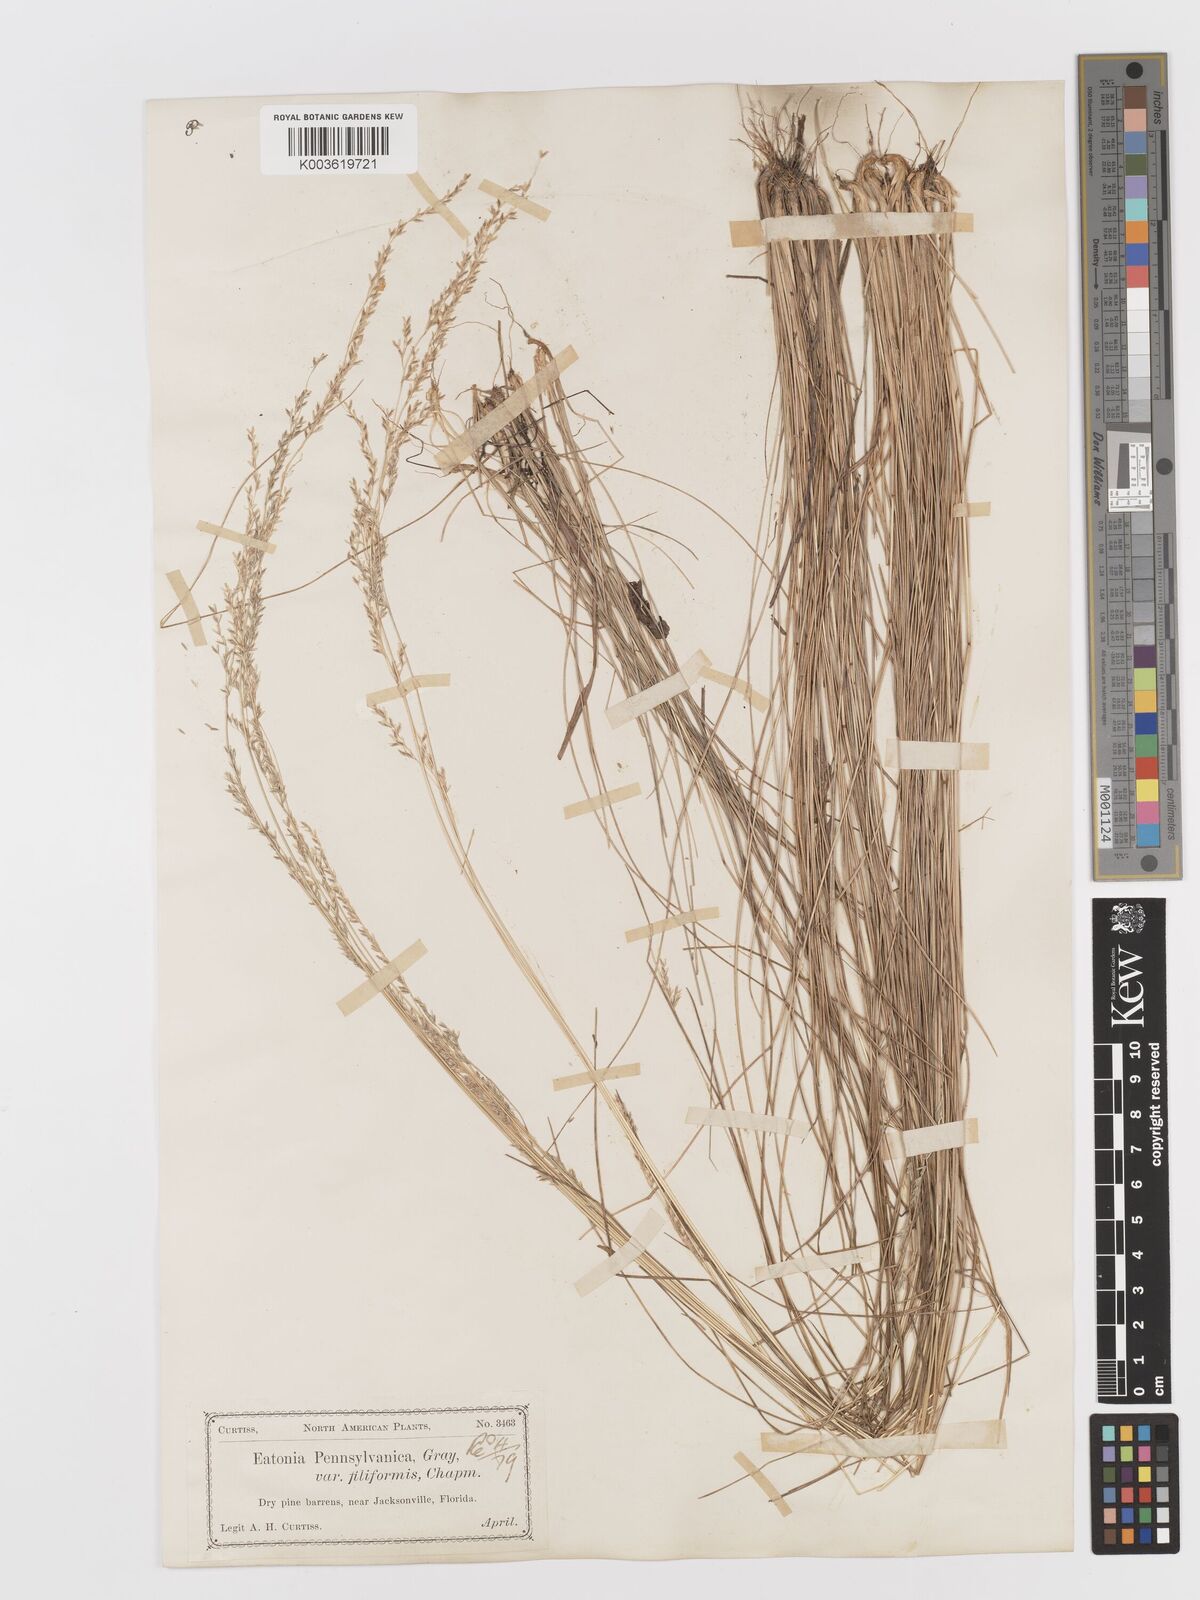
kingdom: Plantae
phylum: Tracheophyta
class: Liliopsida
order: Poales
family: Poaceae
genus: Sphenopholis
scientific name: Sphenopholis filiformis
